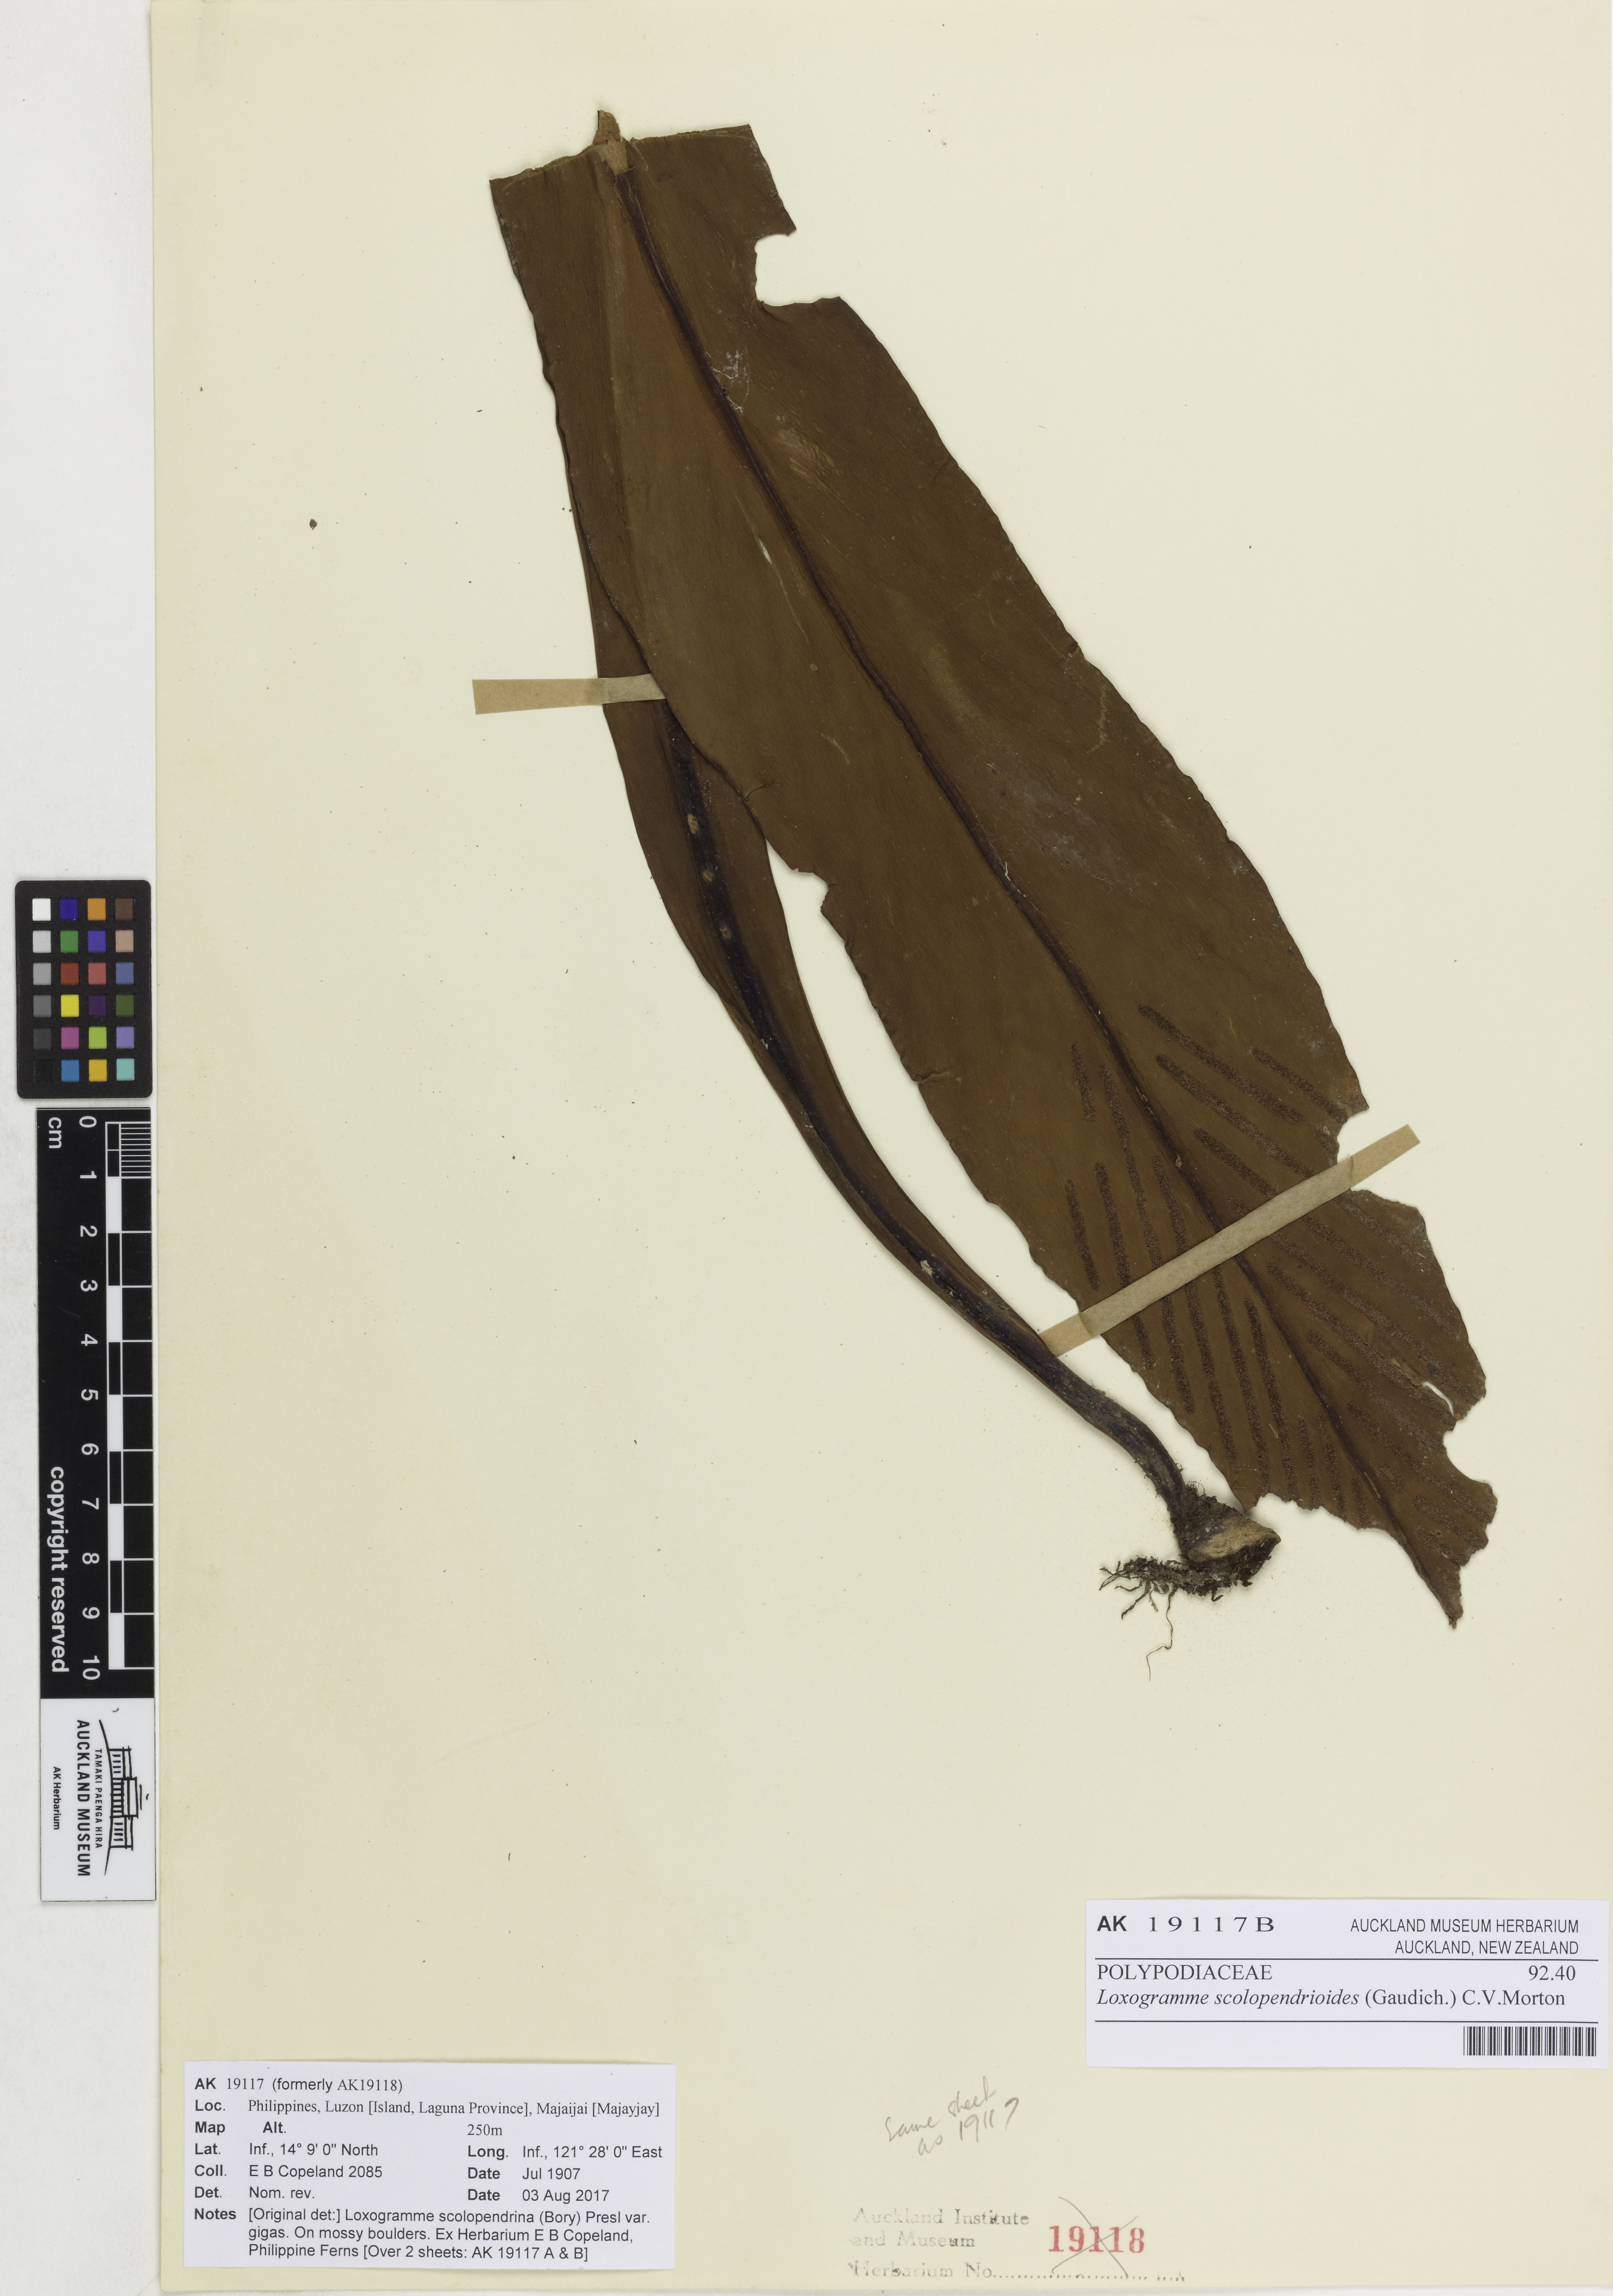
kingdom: Plantae
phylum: Tracheophyta
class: Polypodiopsida
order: Polypodiales
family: Polypodiaceae
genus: Loxogramme
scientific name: Loxogramme scolopendrioides
